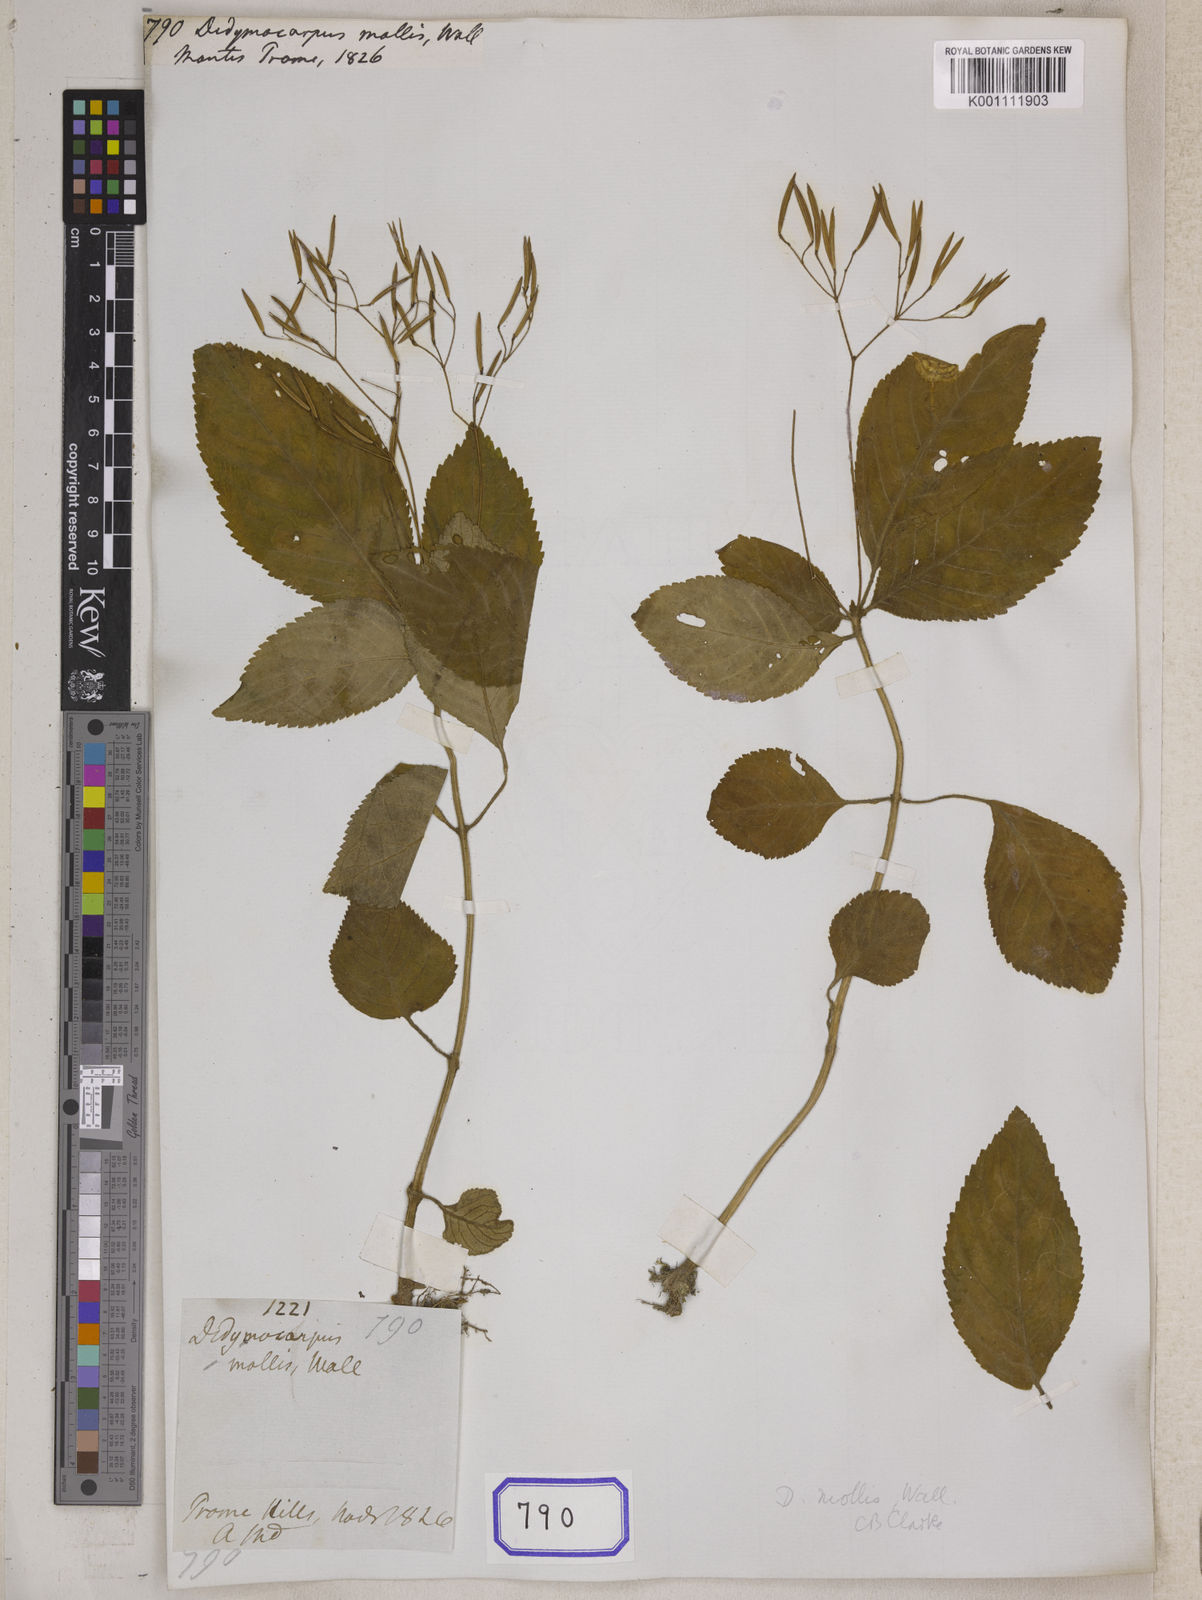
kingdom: Plantae
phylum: Tracheophyta
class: Magnoliopsida
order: Lamiales
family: Gesneriaceae
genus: Didymocarpus
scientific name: Didymocarpus
